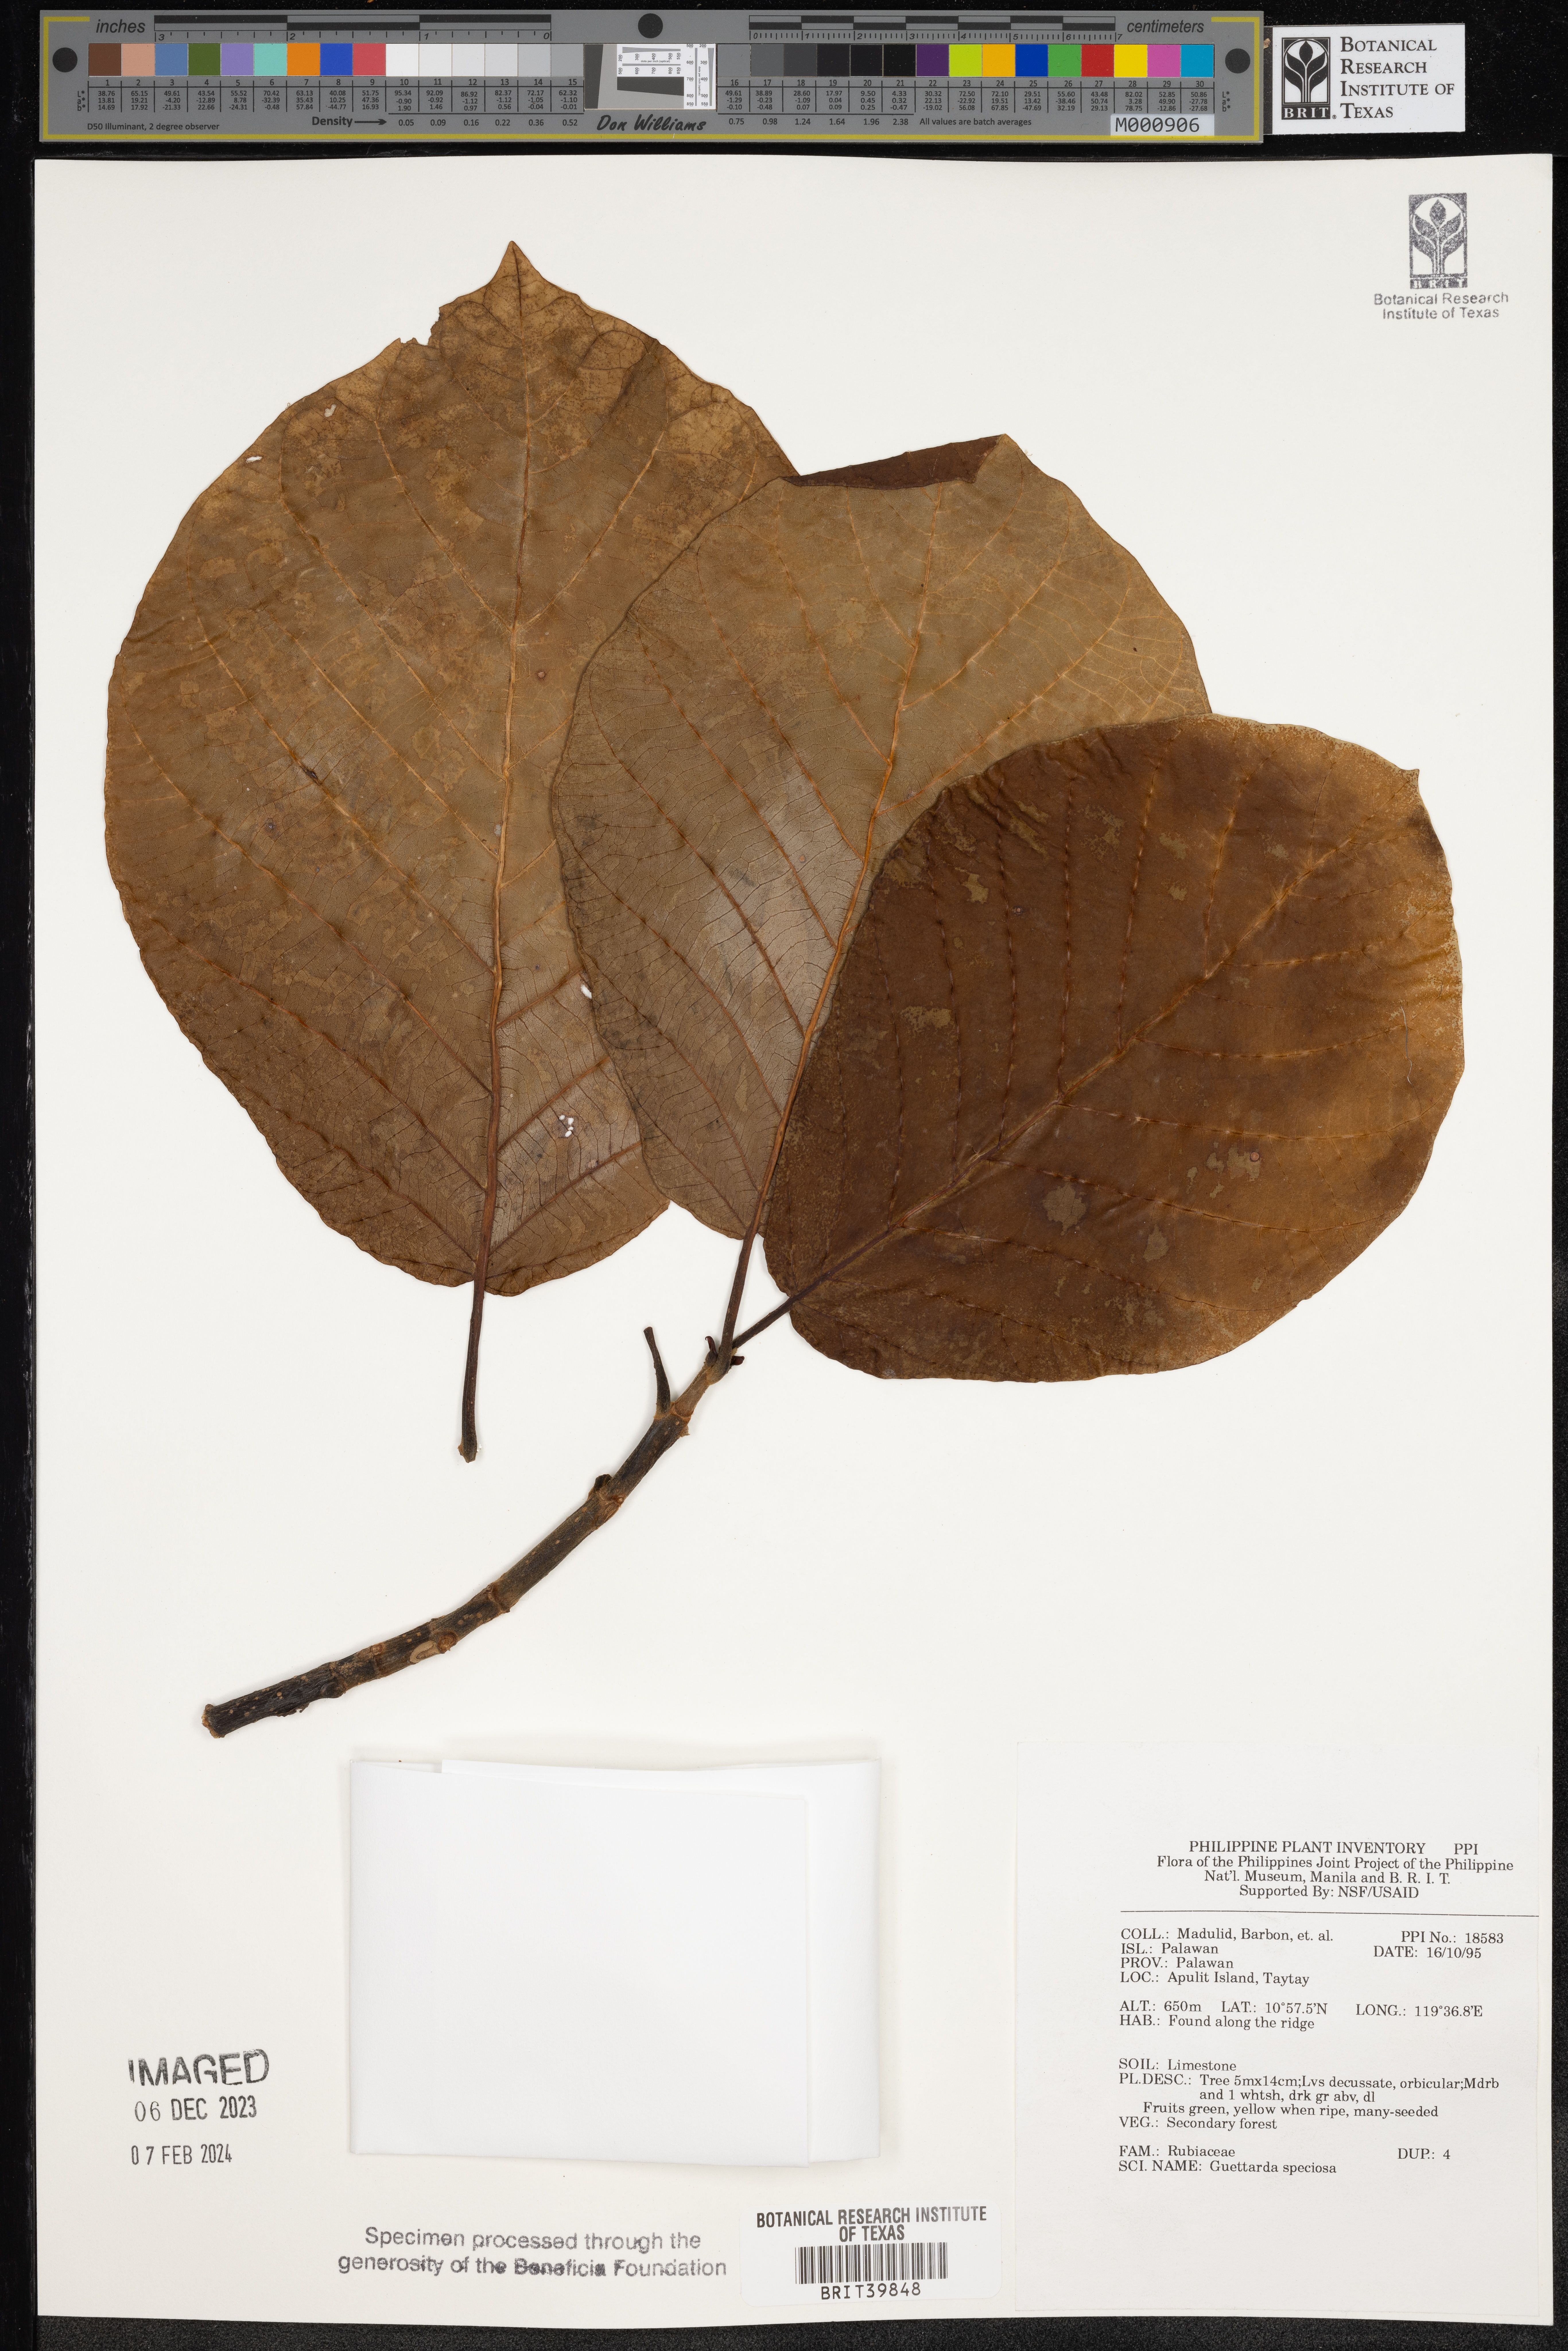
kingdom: Plantae
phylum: Tracheophyta
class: Magnoliopsida
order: Gentianales
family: Rubiaceae
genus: Guettarda
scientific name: Guettarda speciosa
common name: Sea randa
